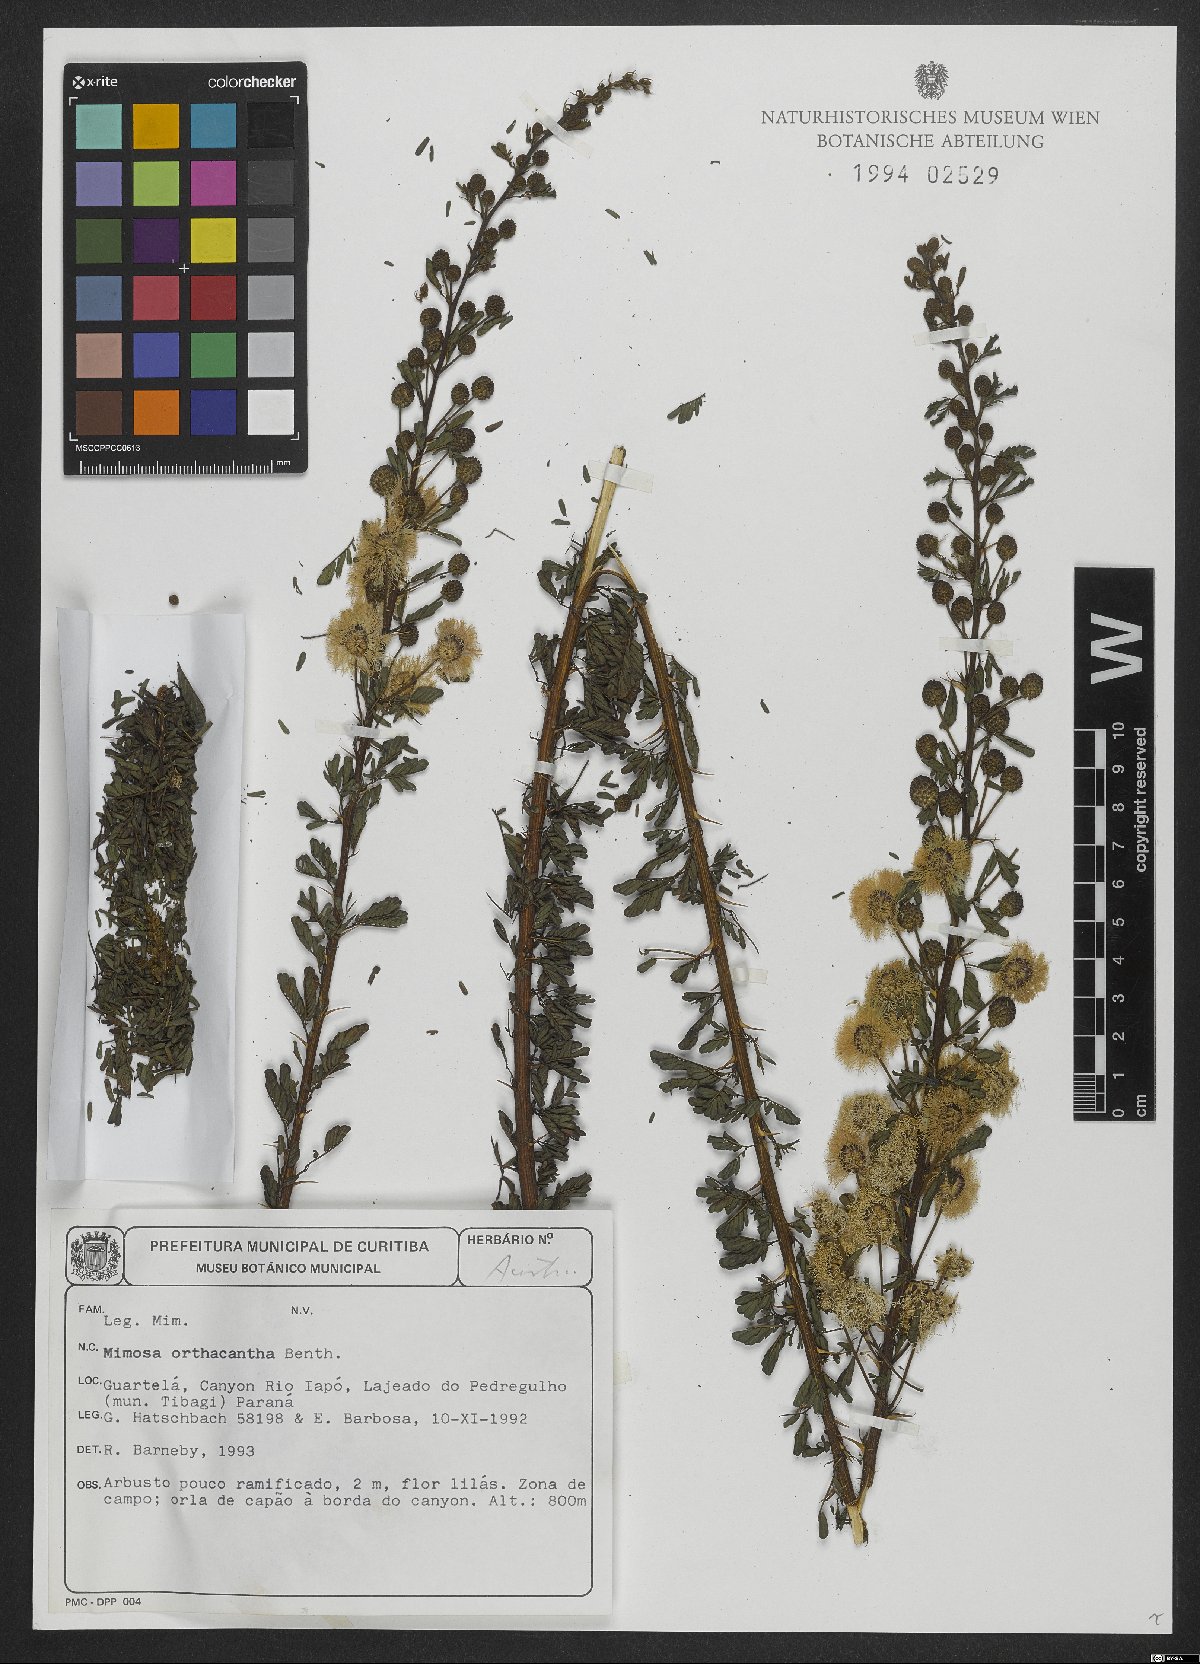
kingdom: Plantae
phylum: Tracheophyta
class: Magnoliopsida
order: Fabales
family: Fabaceae
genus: Mimosa
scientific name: Mimosa orthacantha
